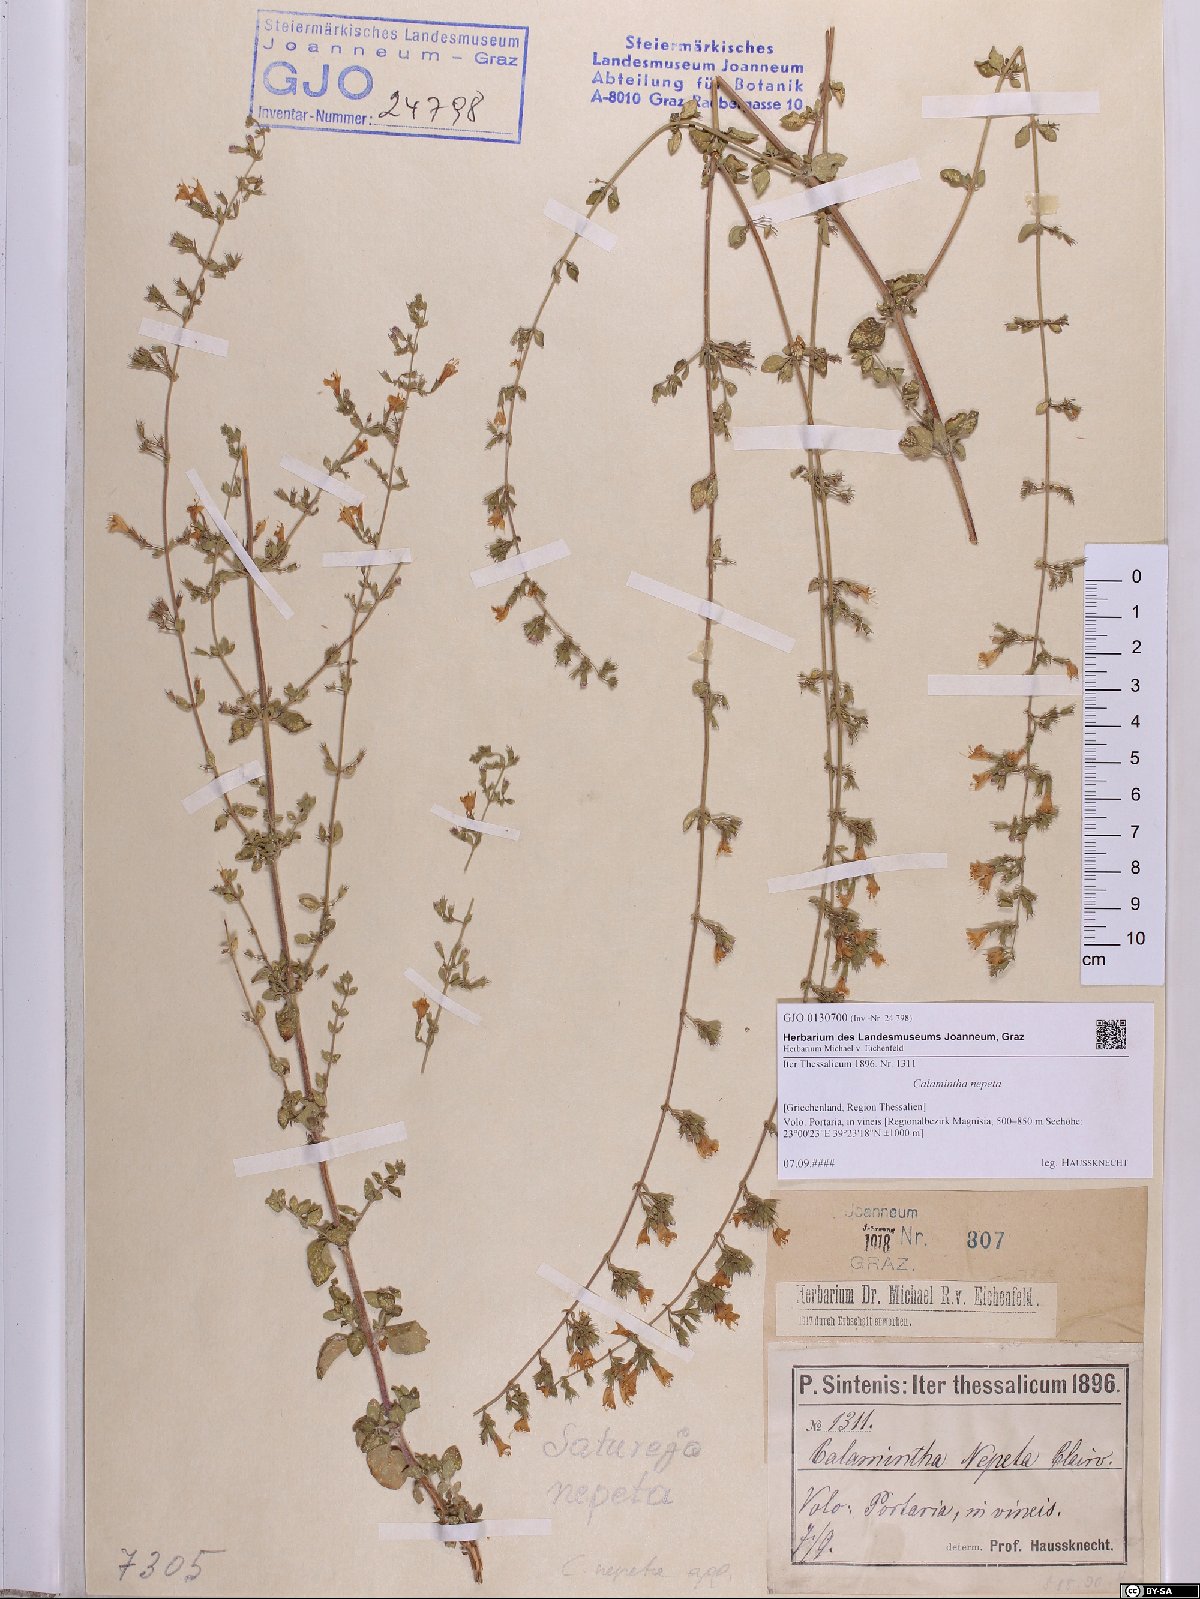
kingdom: Plantae
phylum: Tracheophyta
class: Magnoliopsida
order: Lamiales
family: Lamiaceae
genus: Clinopodium
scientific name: Clinopodium nepeta
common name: Lesser calamint
